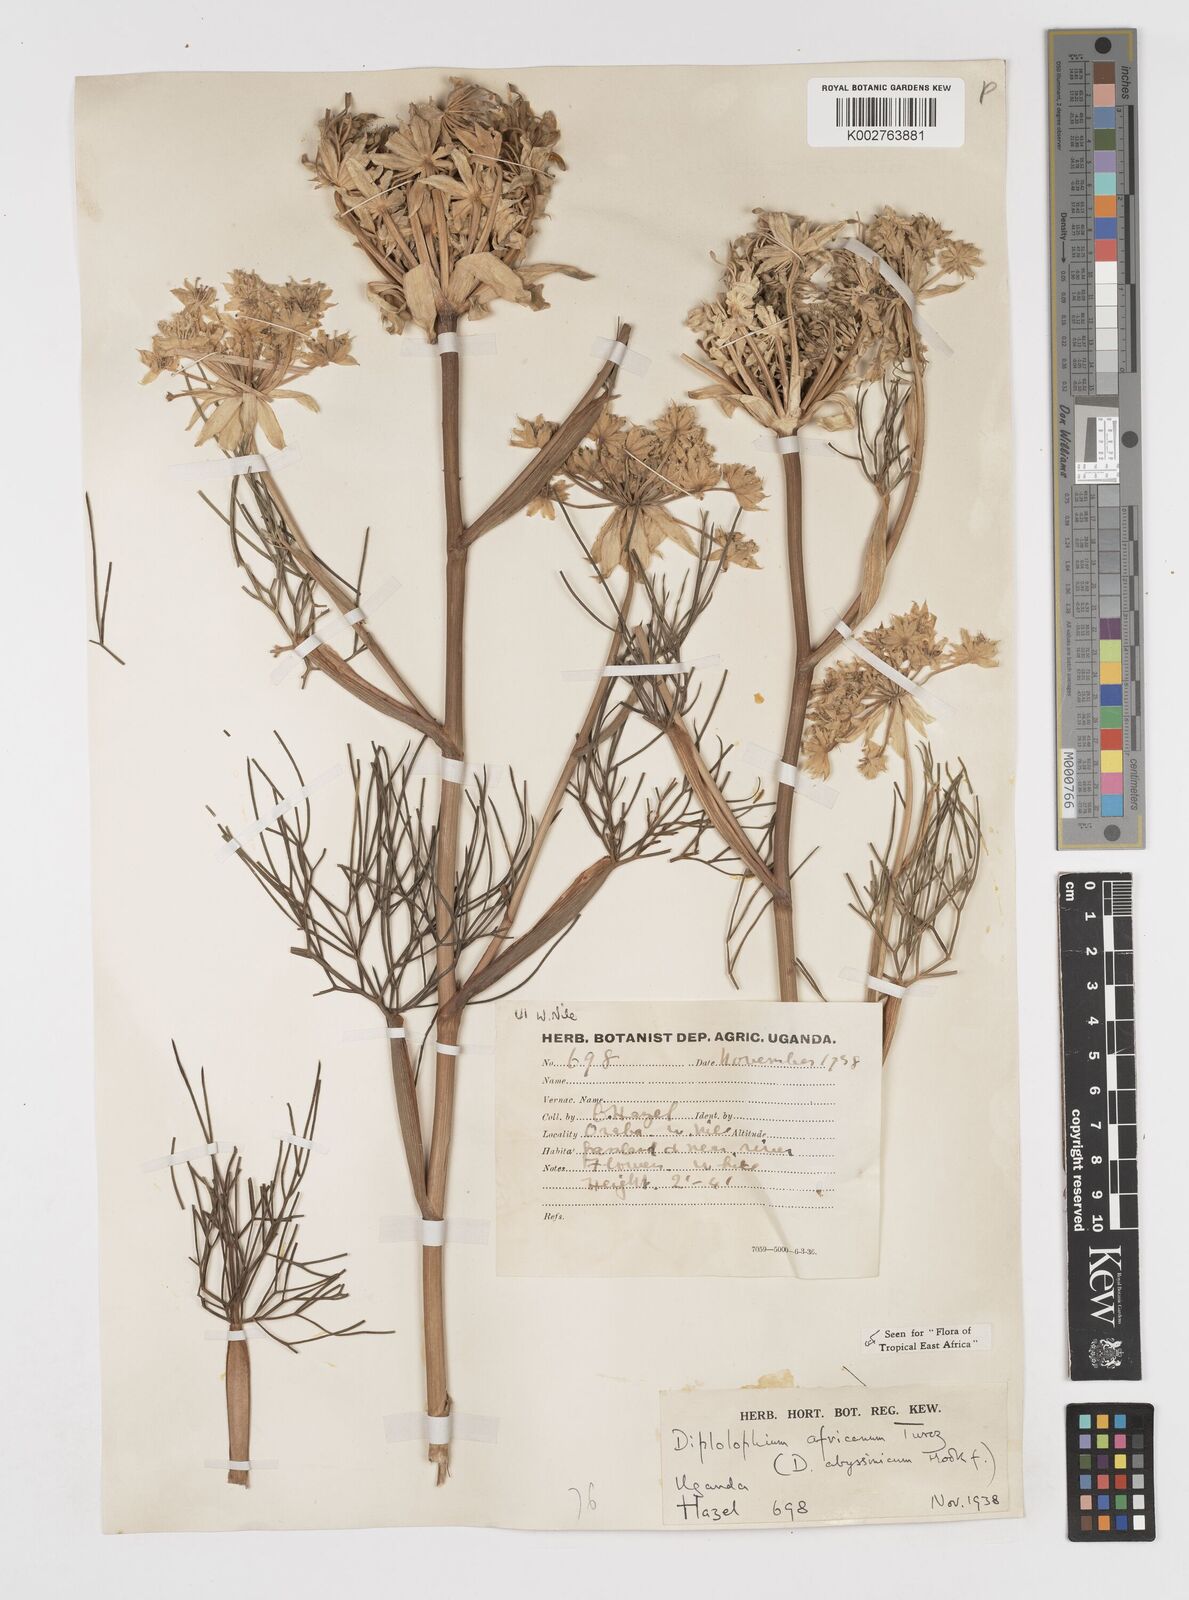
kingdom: Plantae
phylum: Tracheophyta
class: Magnoliopsida
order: Apiales
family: Apiaceae
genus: Diplolophium
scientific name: Diplolophium africanum
